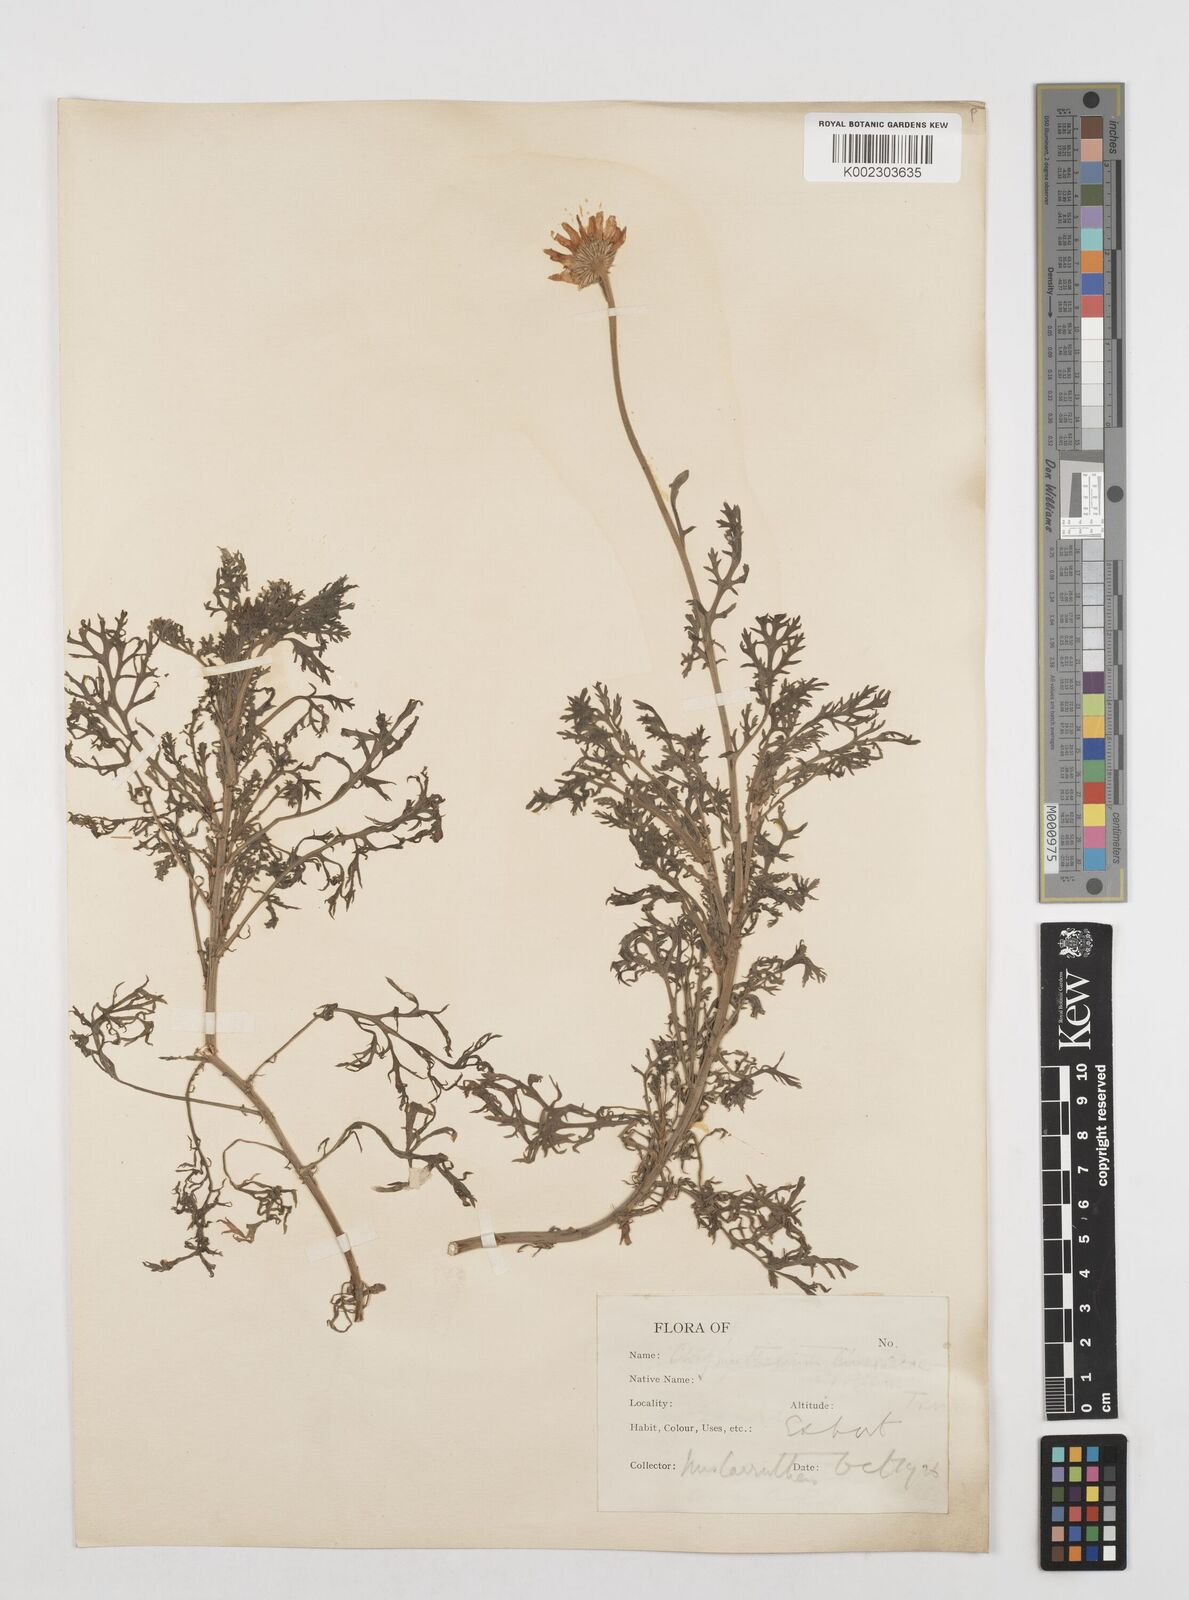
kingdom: Plantae
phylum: Tracheophyta
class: Magnoliopsida
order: Asterales
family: Asteraceae
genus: Tanacetum
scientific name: Tanacetum cinerariifolium
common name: Dalmatian pyrethrum
